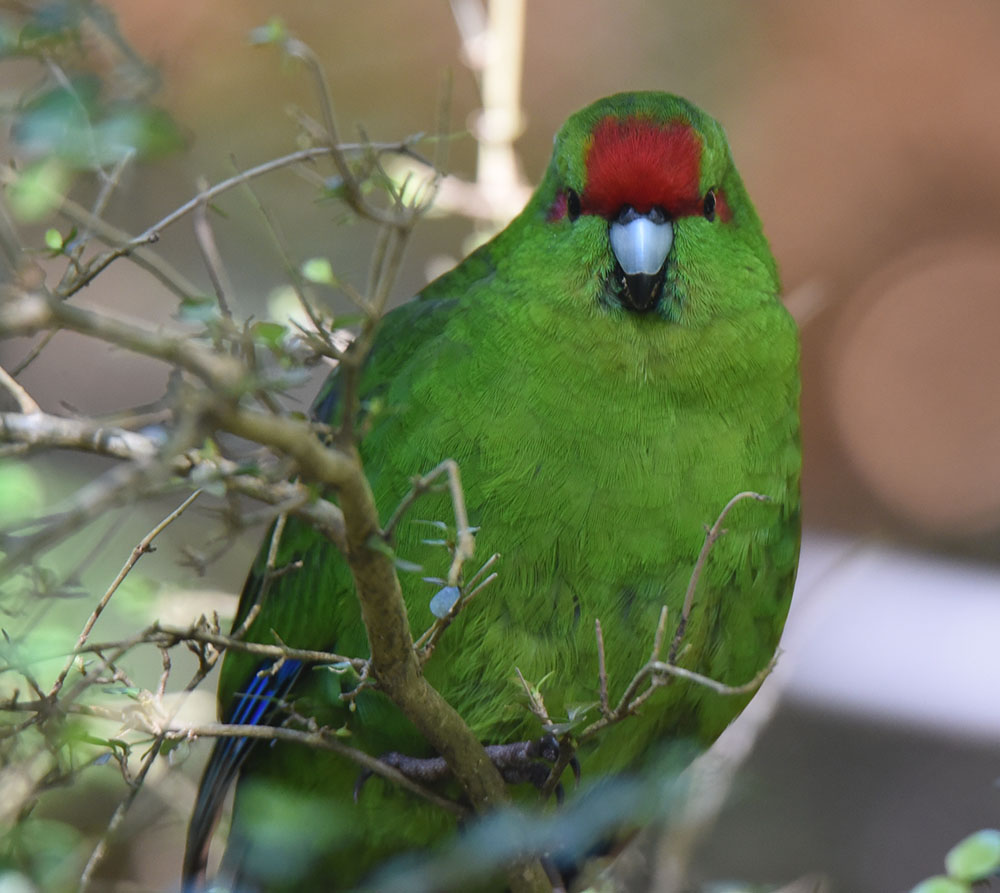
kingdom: Animalia
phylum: Chordata
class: Aves
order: Psittaciformes
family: Psittacidae
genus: Cyanoramphus
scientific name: Cyanoramphus novaezelandiae
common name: Red-fronted parakeet
